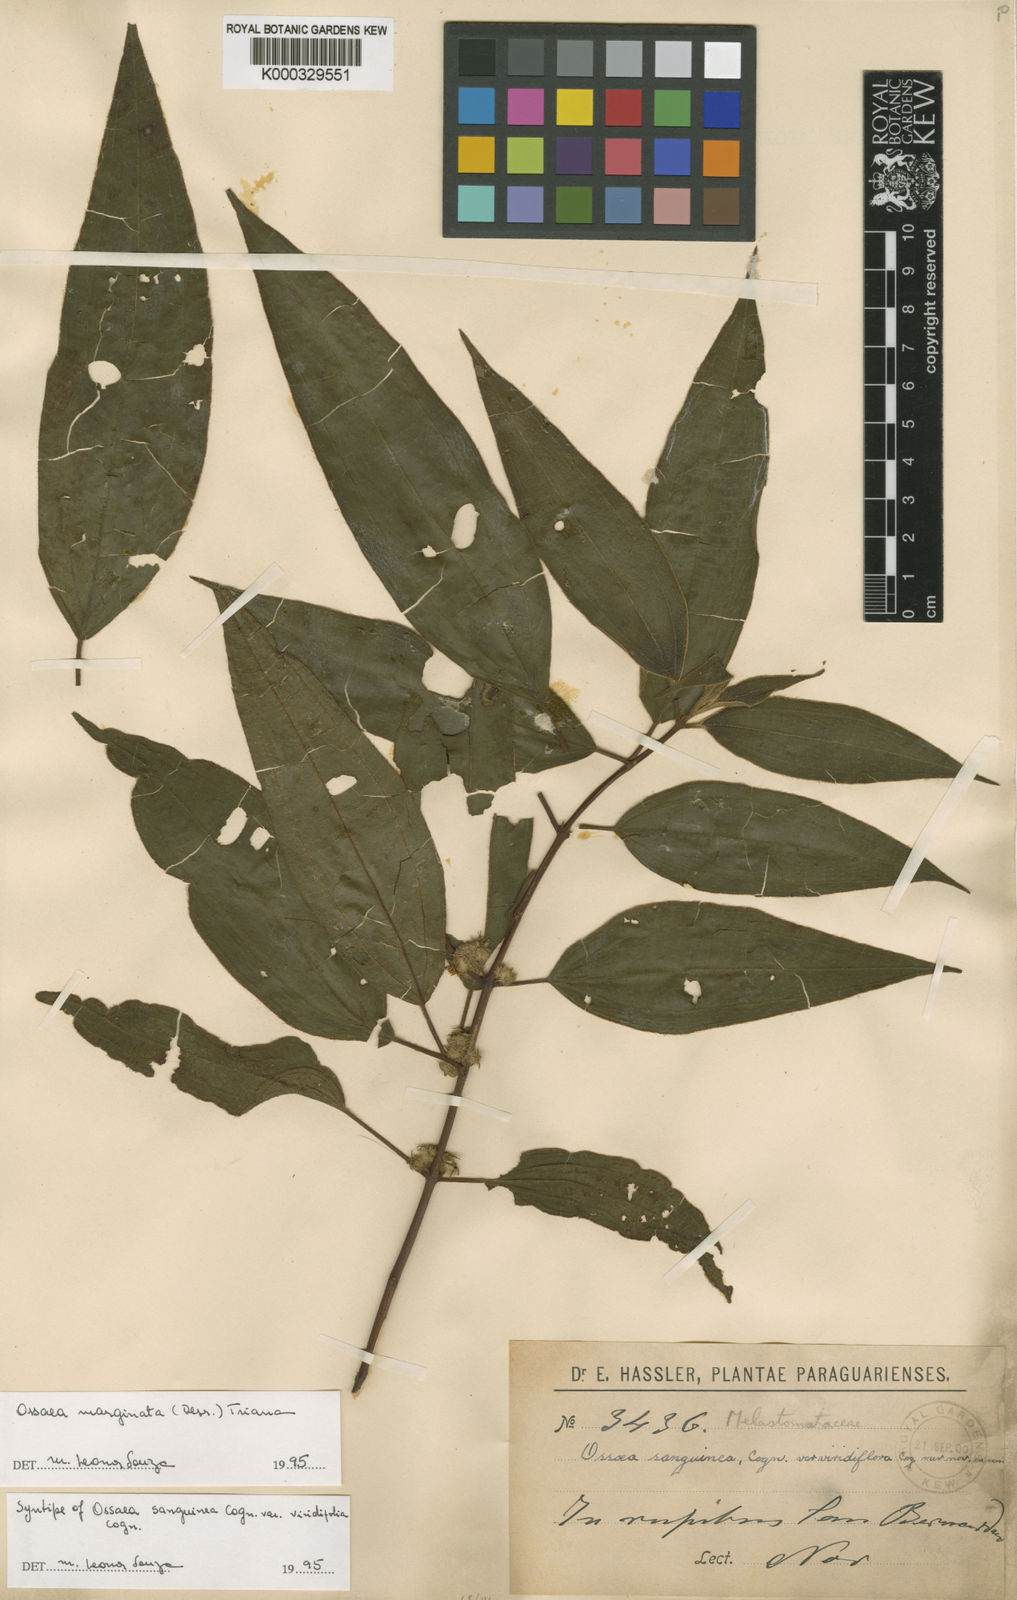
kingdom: Plantae
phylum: Tracheophyta
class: Magnoliopsida
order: Myrtales
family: Melastomataceae
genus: Miconia
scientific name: Miconia leamarginata
